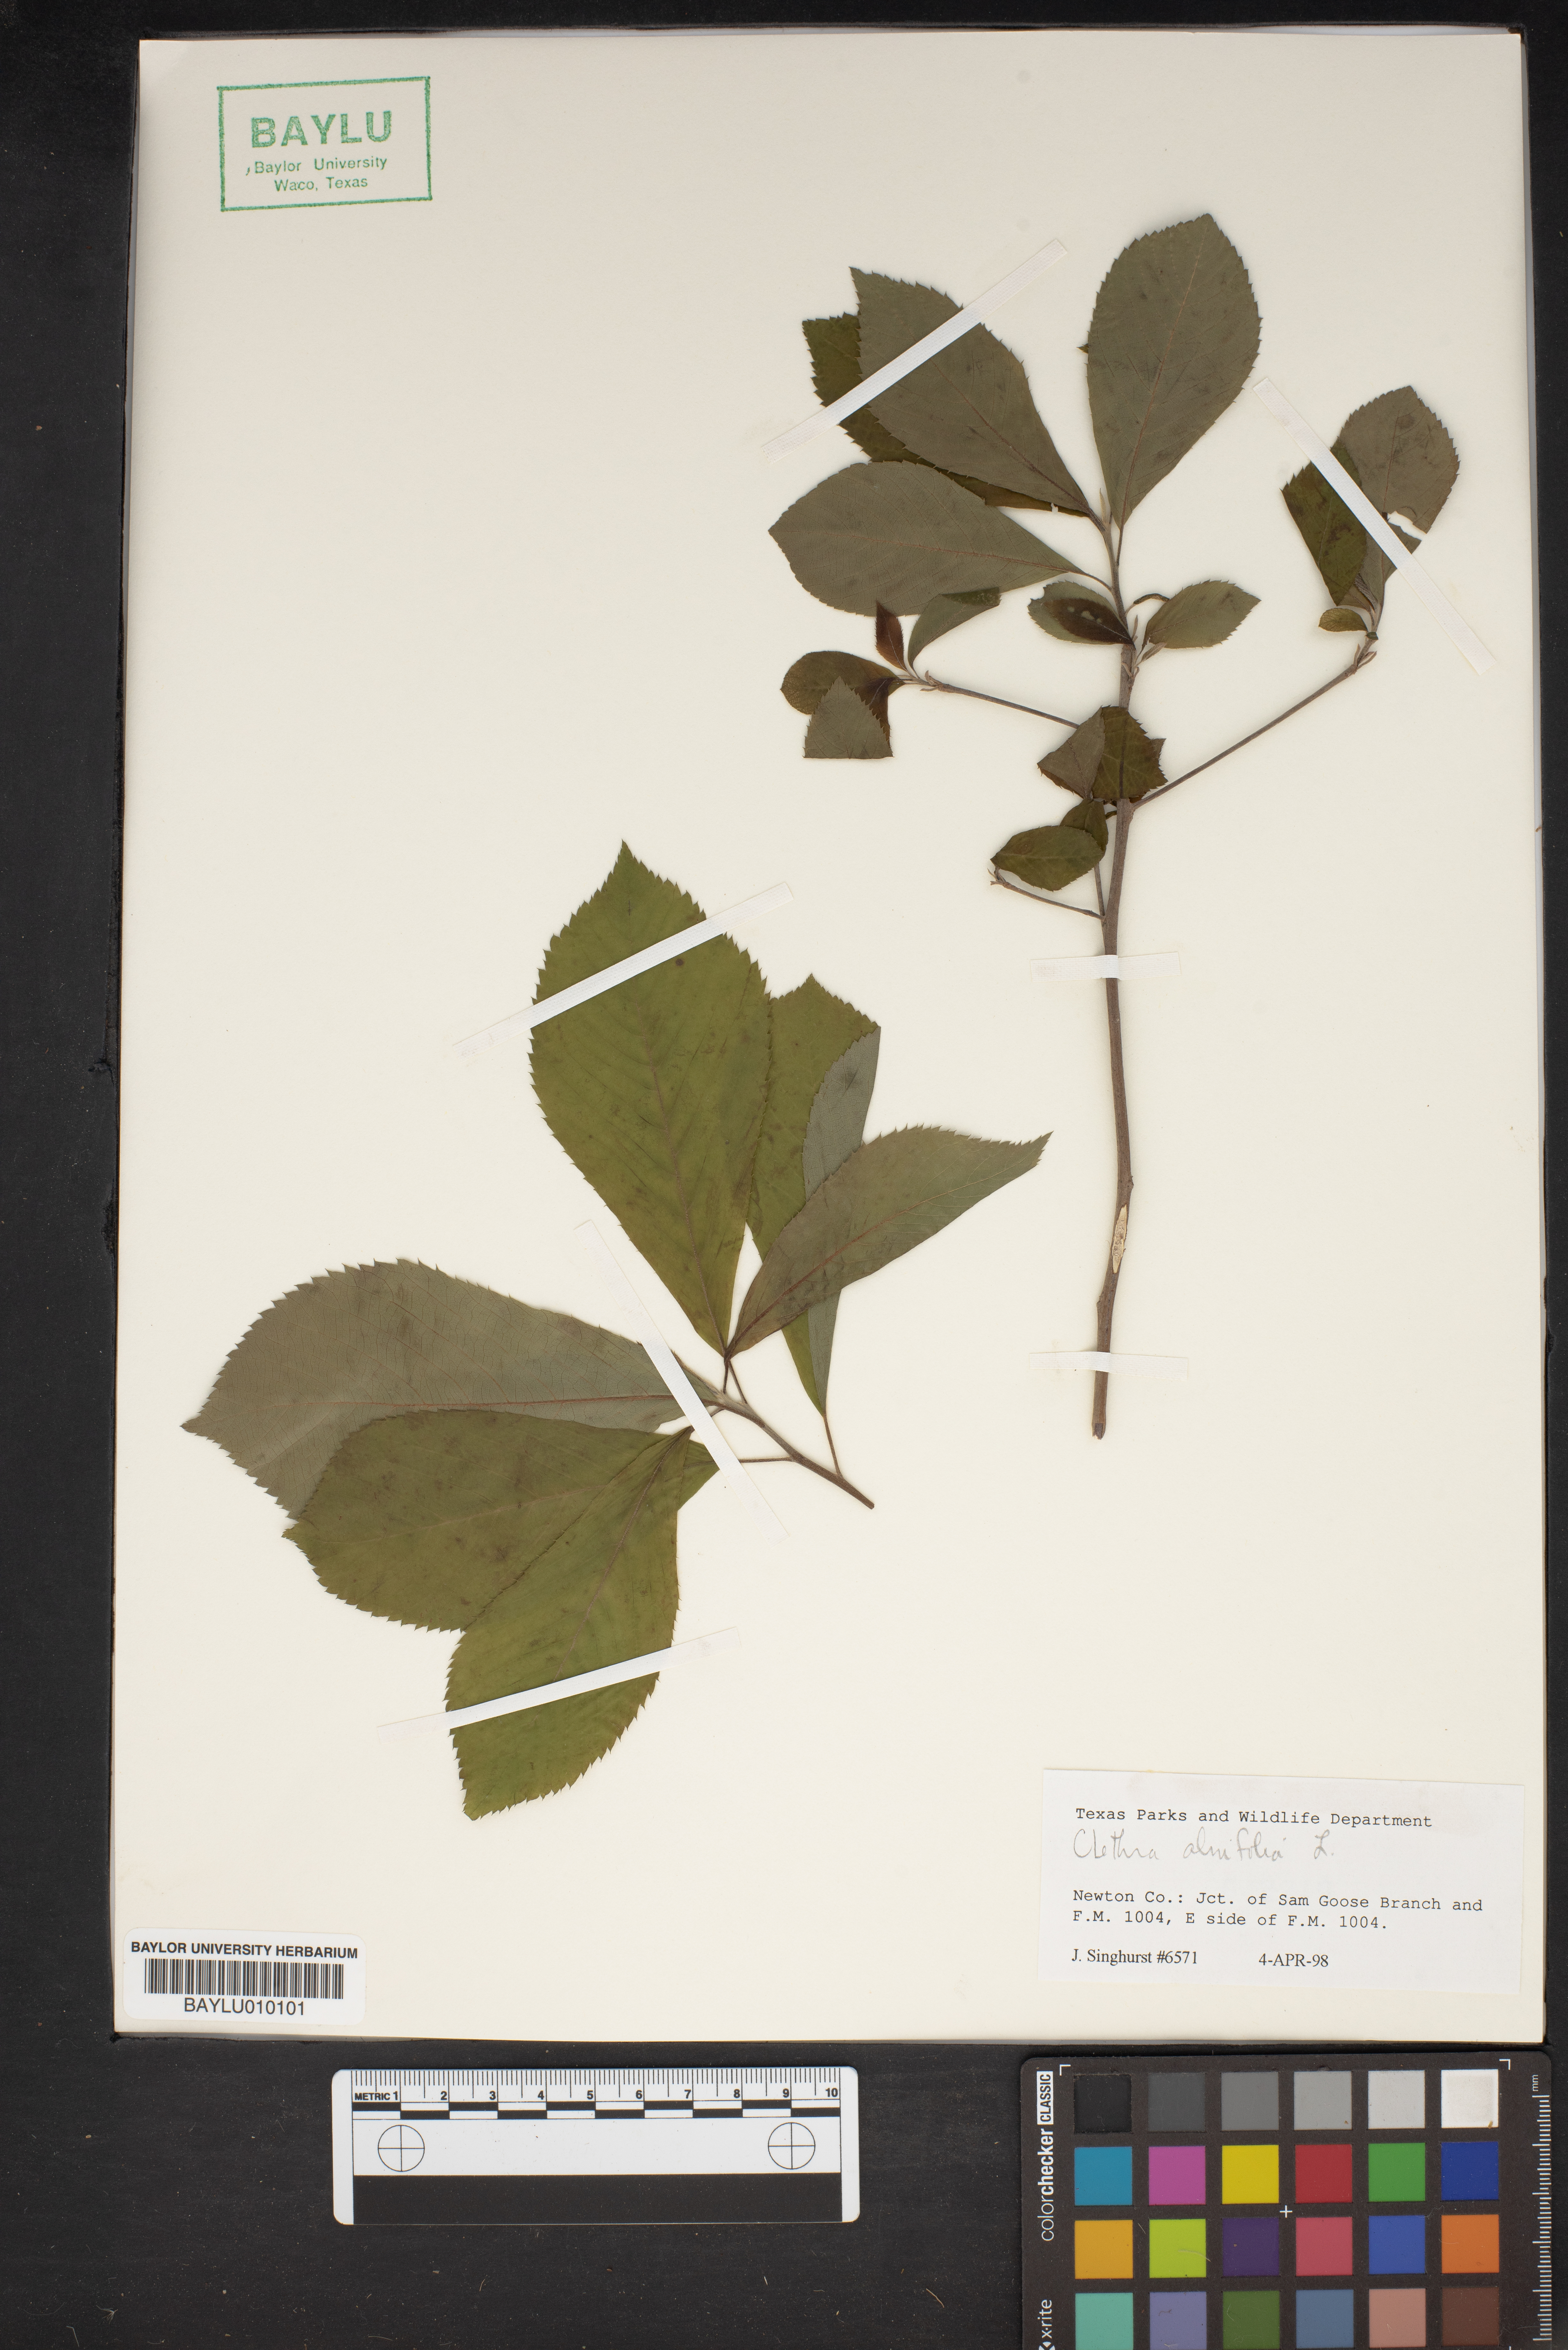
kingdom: Plantae
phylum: Tracheophyta
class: Magnoliopsida
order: Ericales
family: Clethraceae
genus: Clethra
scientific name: Clethra alnifolia
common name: Sweet pepperbush
